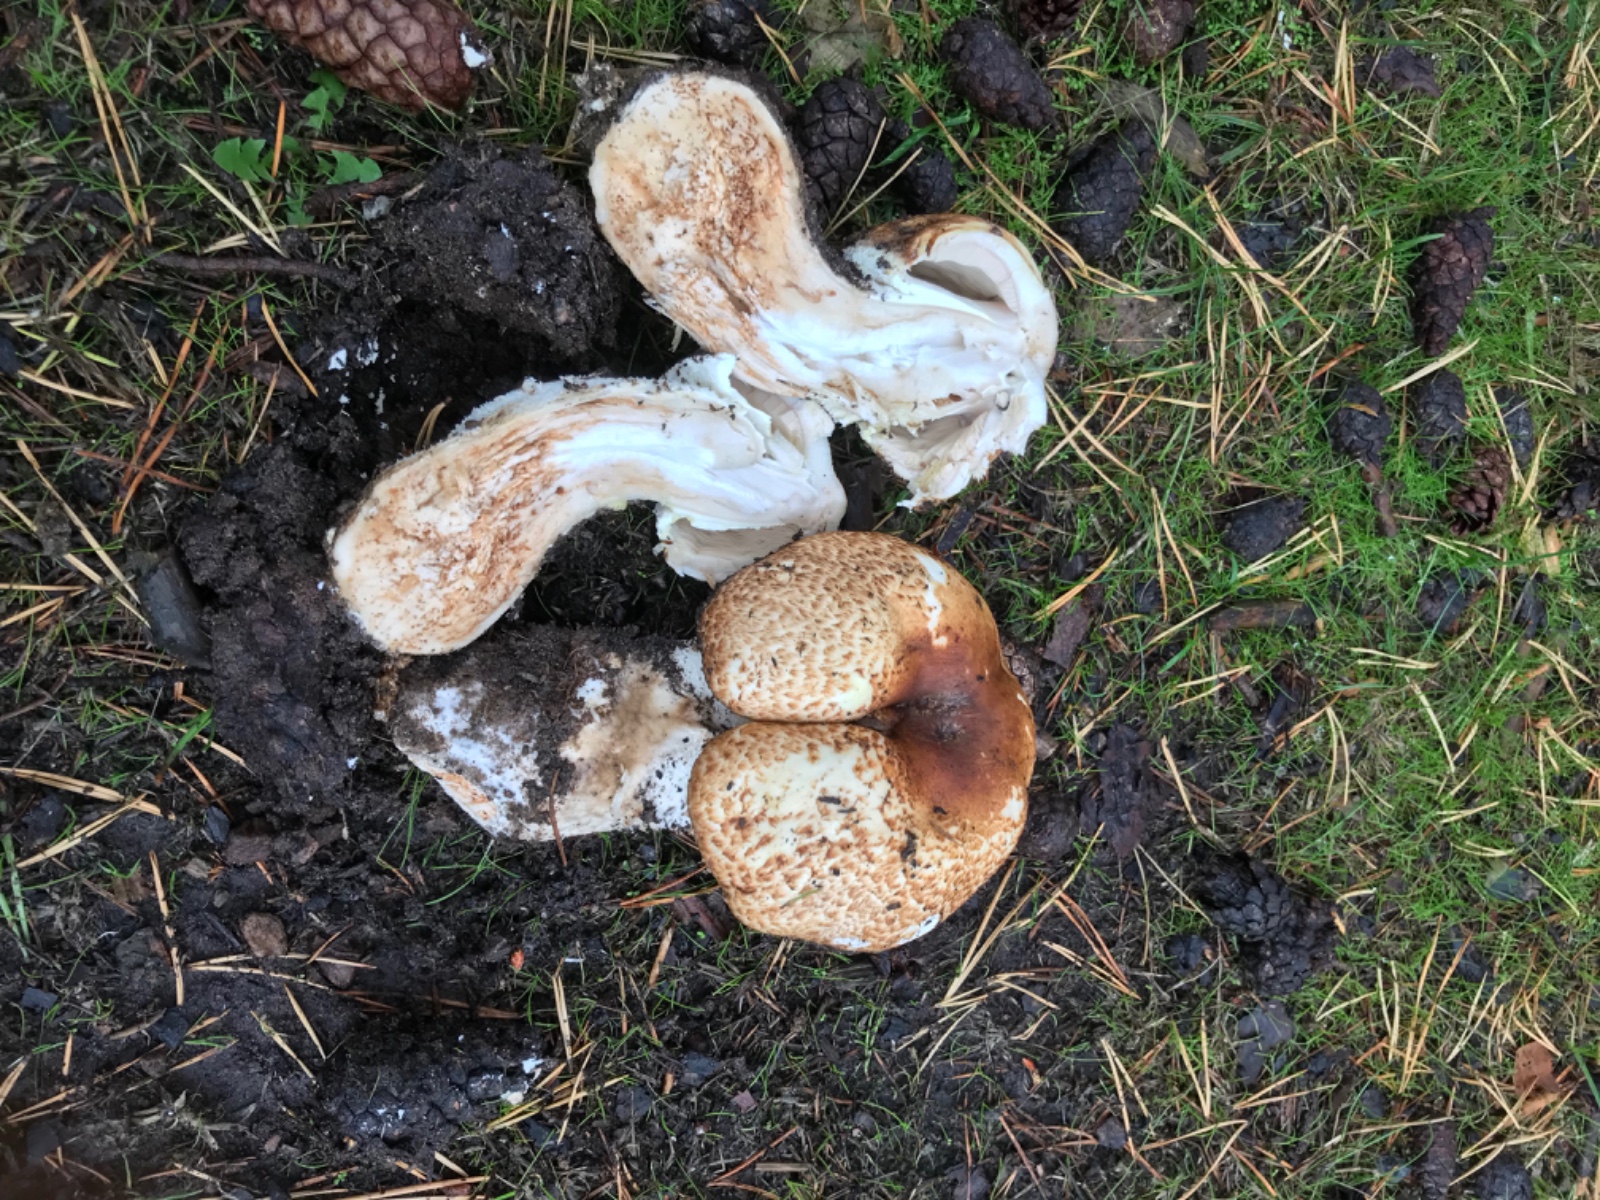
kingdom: Fungi
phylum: Basidiomycota
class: Agaricomycetes
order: Agaricales
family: Agaricaceae
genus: Agaricus
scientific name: Agaricus augustus
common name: prægtig champignon
